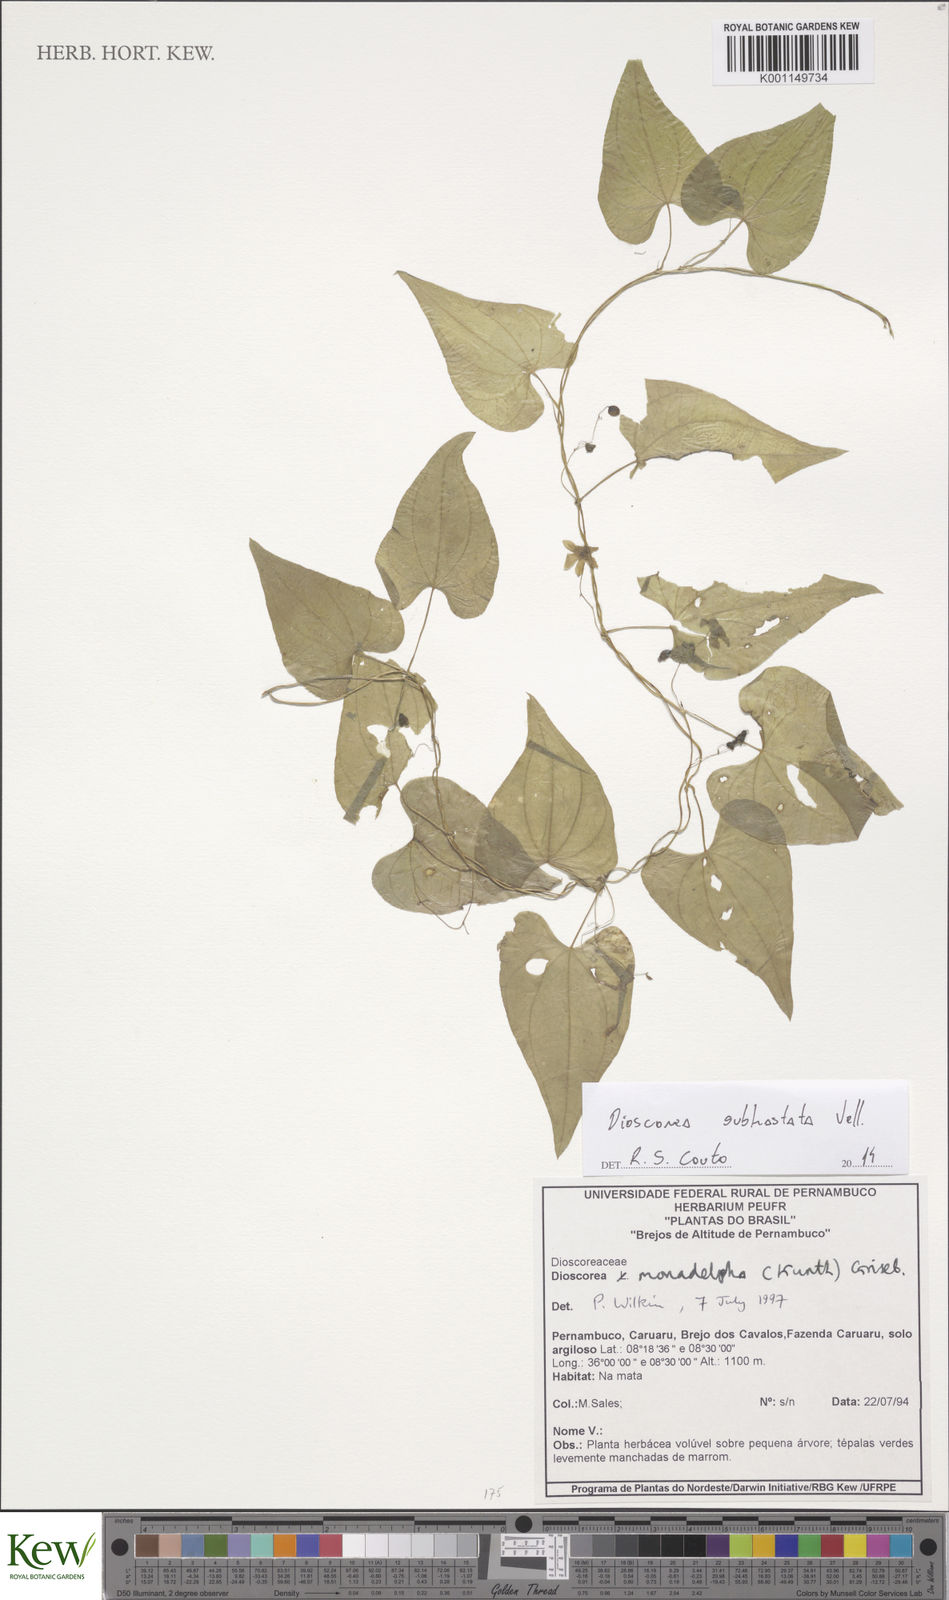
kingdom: Plantae
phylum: Tracheophyta
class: Liliopsida
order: Dioscoreales
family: Dioscoreaceae
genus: Dioscorea
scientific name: Dioscorea subhastata
